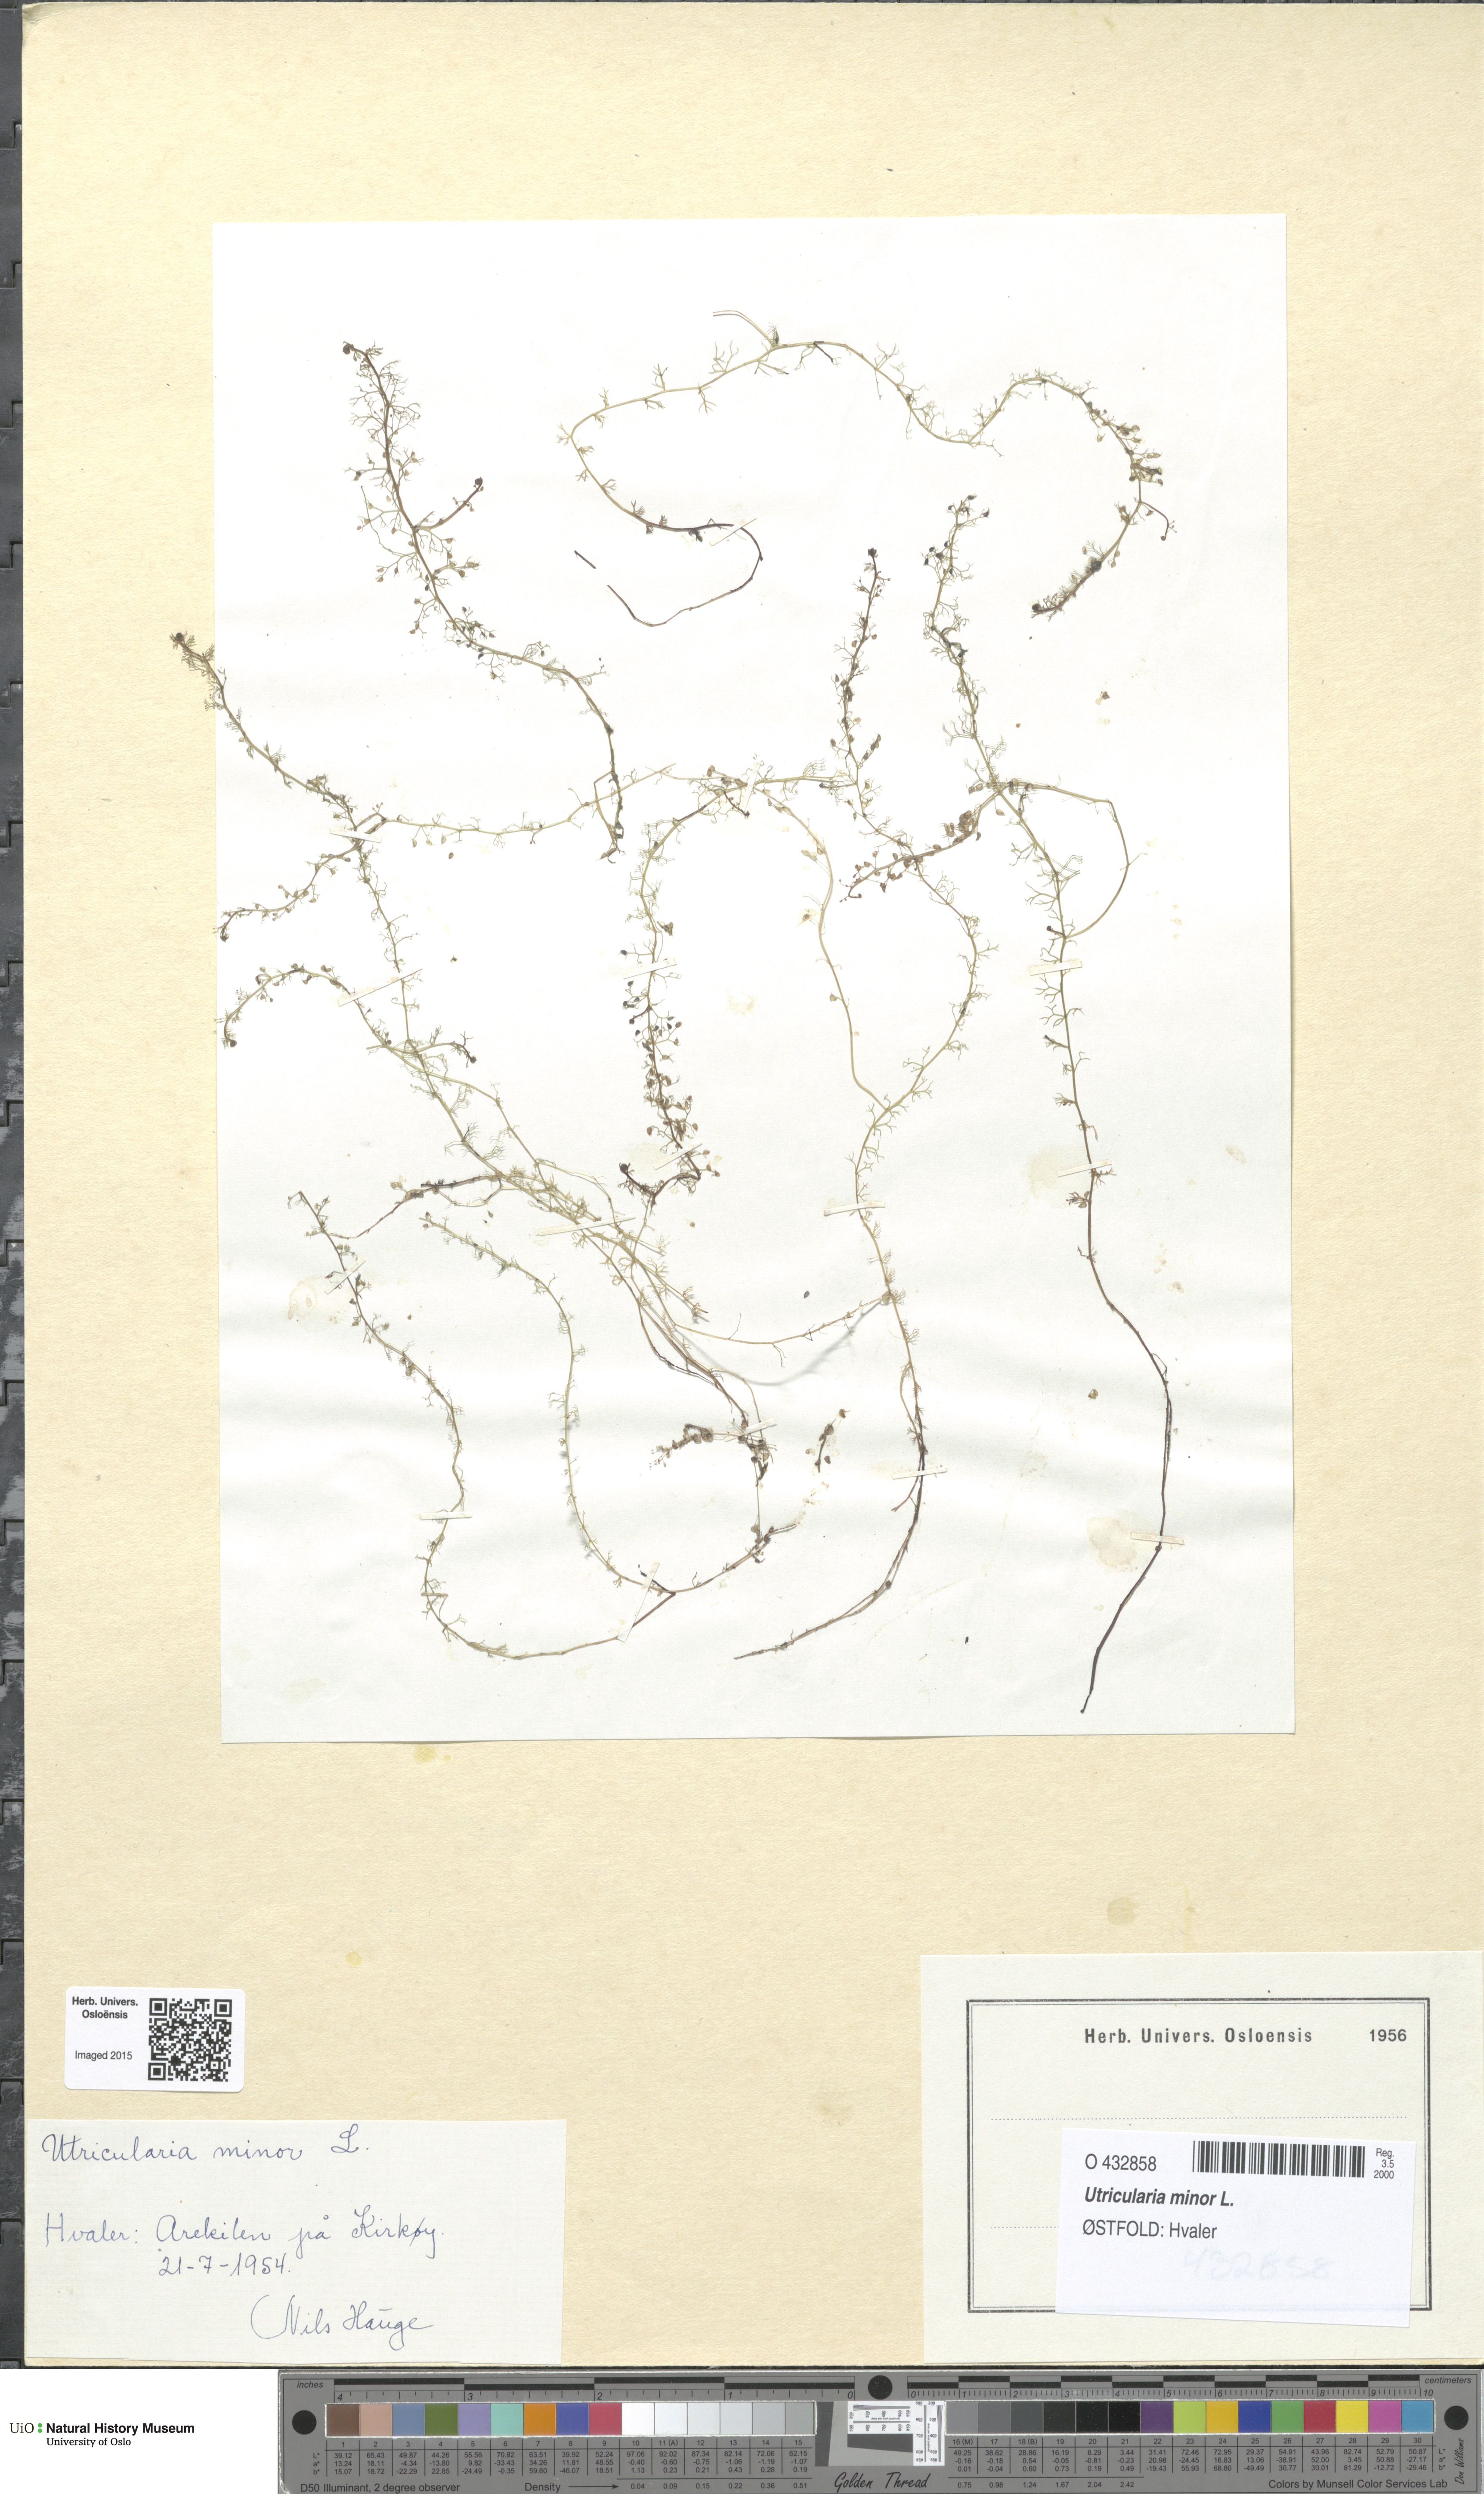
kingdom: Plantae
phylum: Tracheophyta
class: Magnoliopsida
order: Lamiales
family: Lentibulariaceae
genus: Utricularia
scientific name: Utricularia minor
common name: Lesser bladderwort
